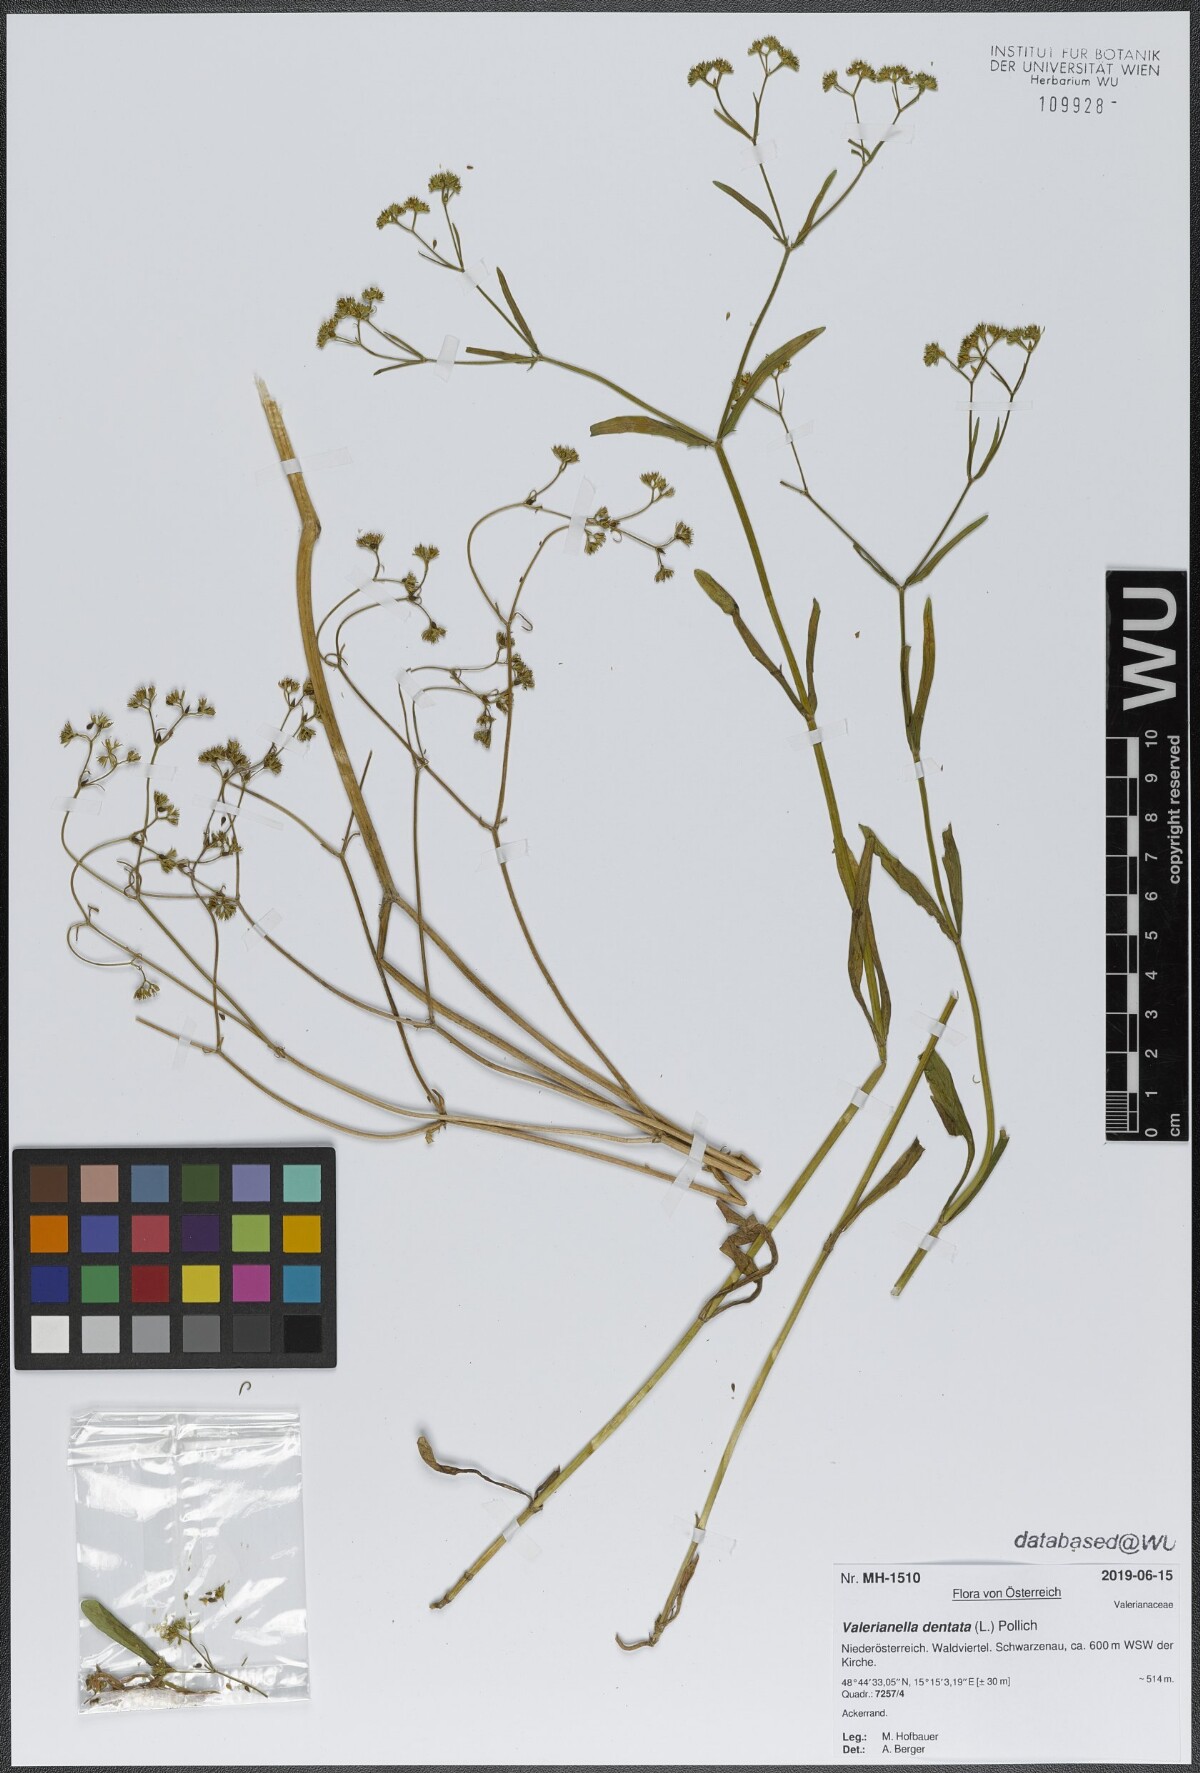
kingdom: Plantae
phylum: Tracheophyta
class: Magnoliopsida
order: Dipsacales
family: Caprifoliaceae
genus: Valerianella
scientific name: Valerianella dentata
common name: Narrow-fruited cornsalad
